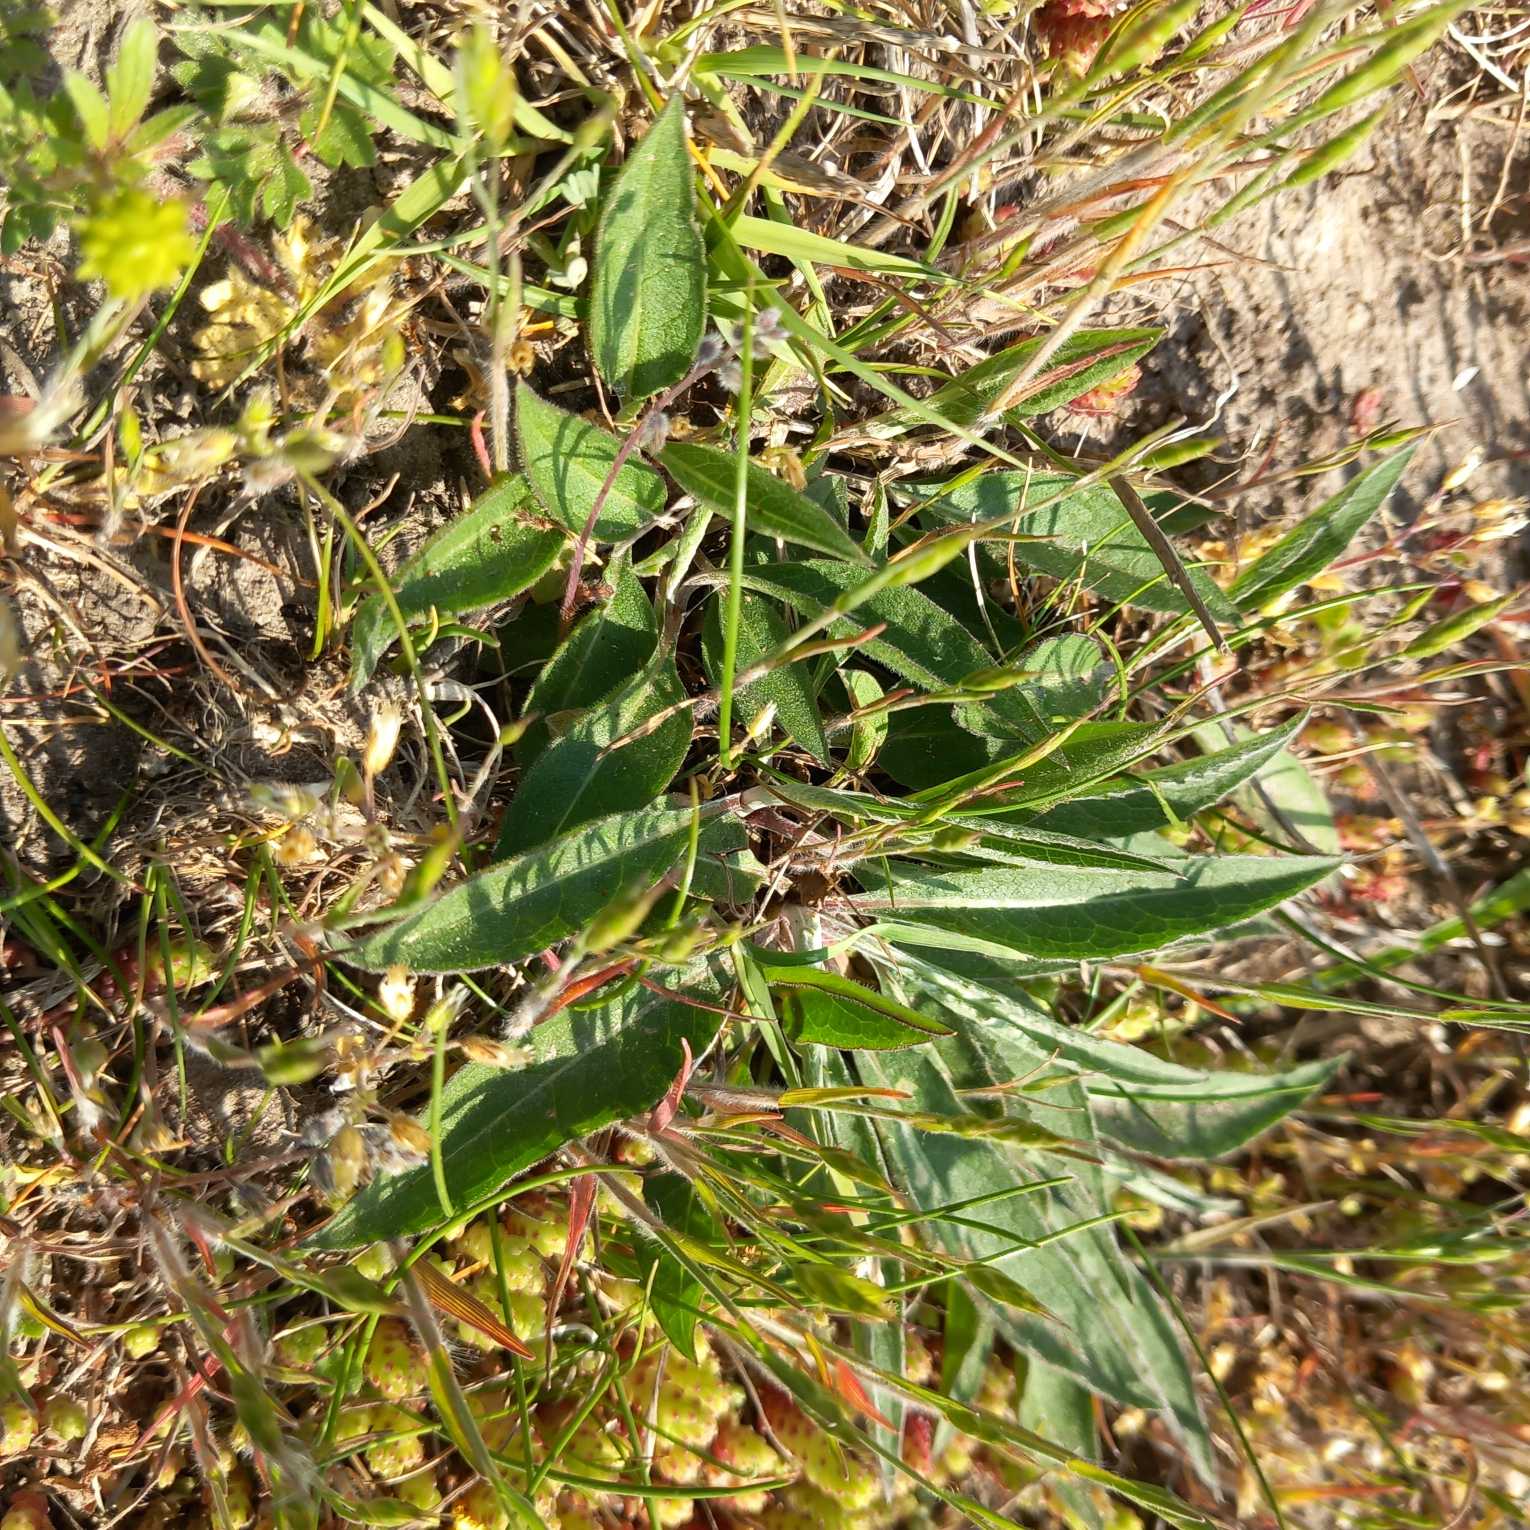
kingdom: Plantae
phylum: Tracheophyta
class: Magnoliopsida
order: Asterales
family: Asteraceae
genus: Centaurea
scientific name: Centaurea jacea
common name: Almindelig knopurt
